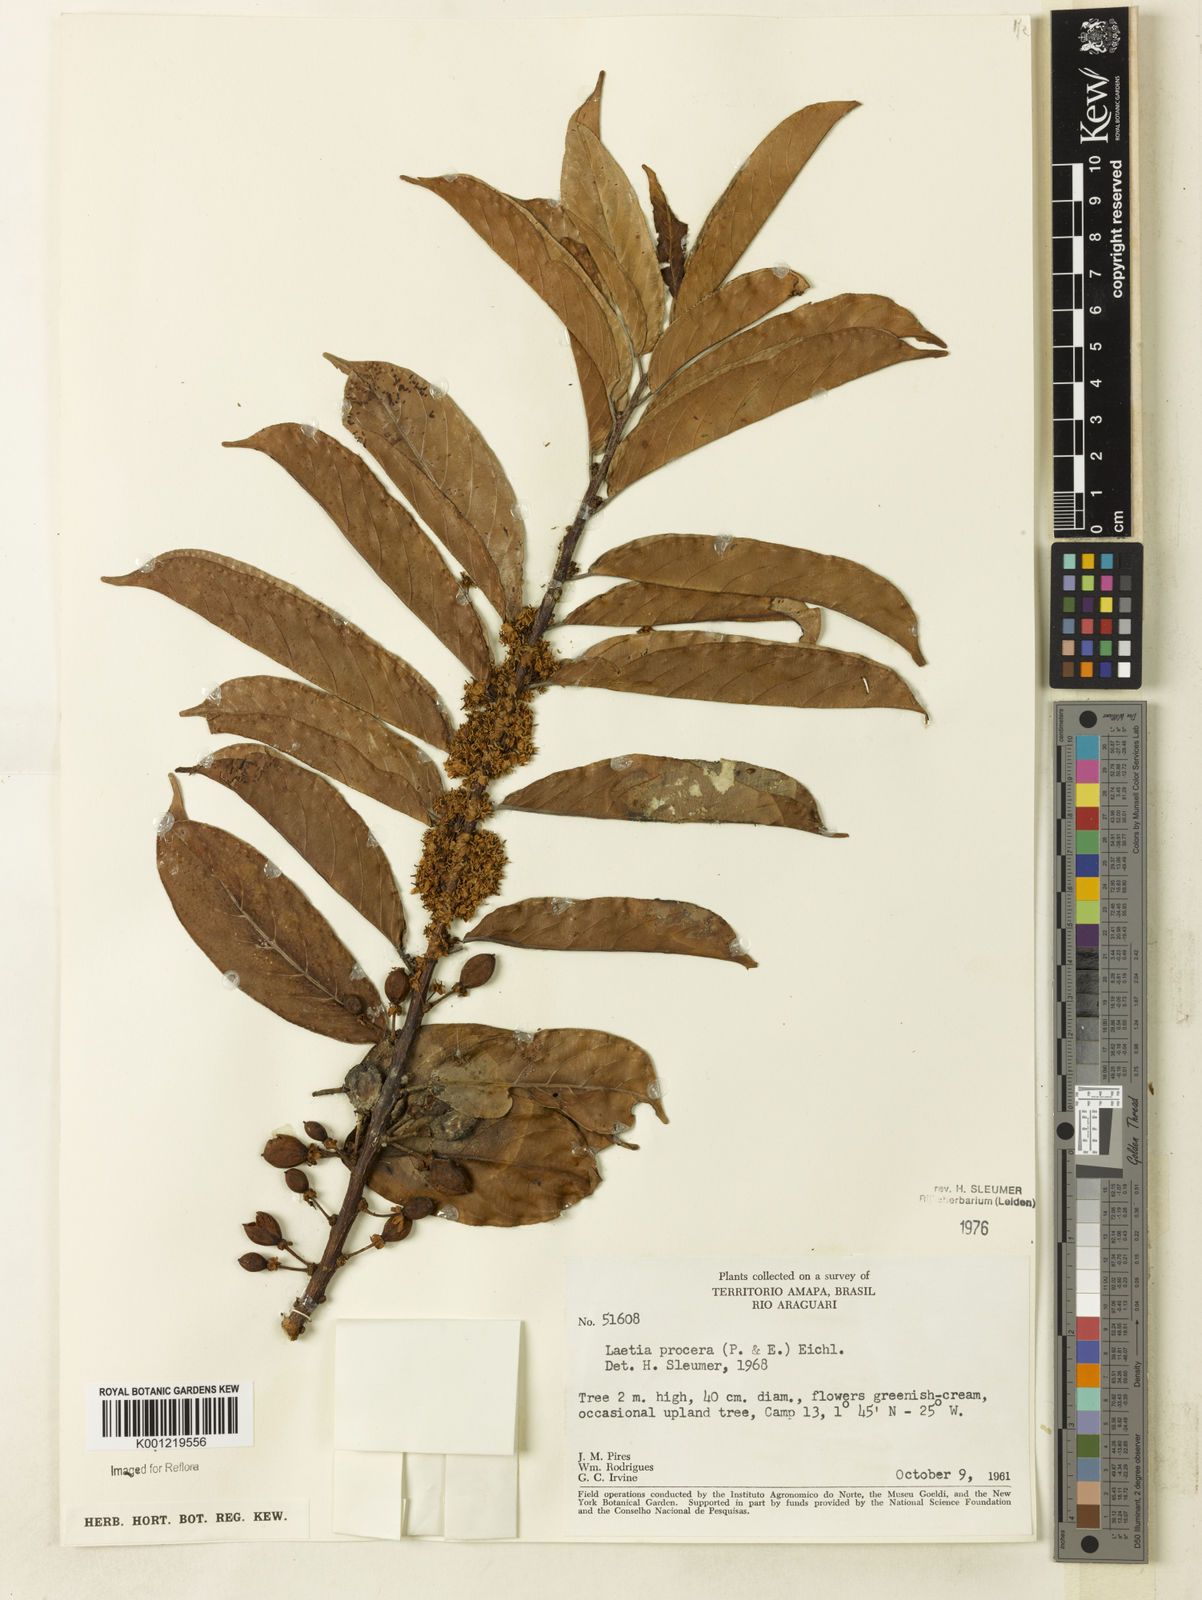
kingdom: Plantae
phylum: Tracheophyta
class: Magnoliopsida
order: Malpighiales
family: Salicaceae
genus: Casearia
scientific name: Casearia bicolor
